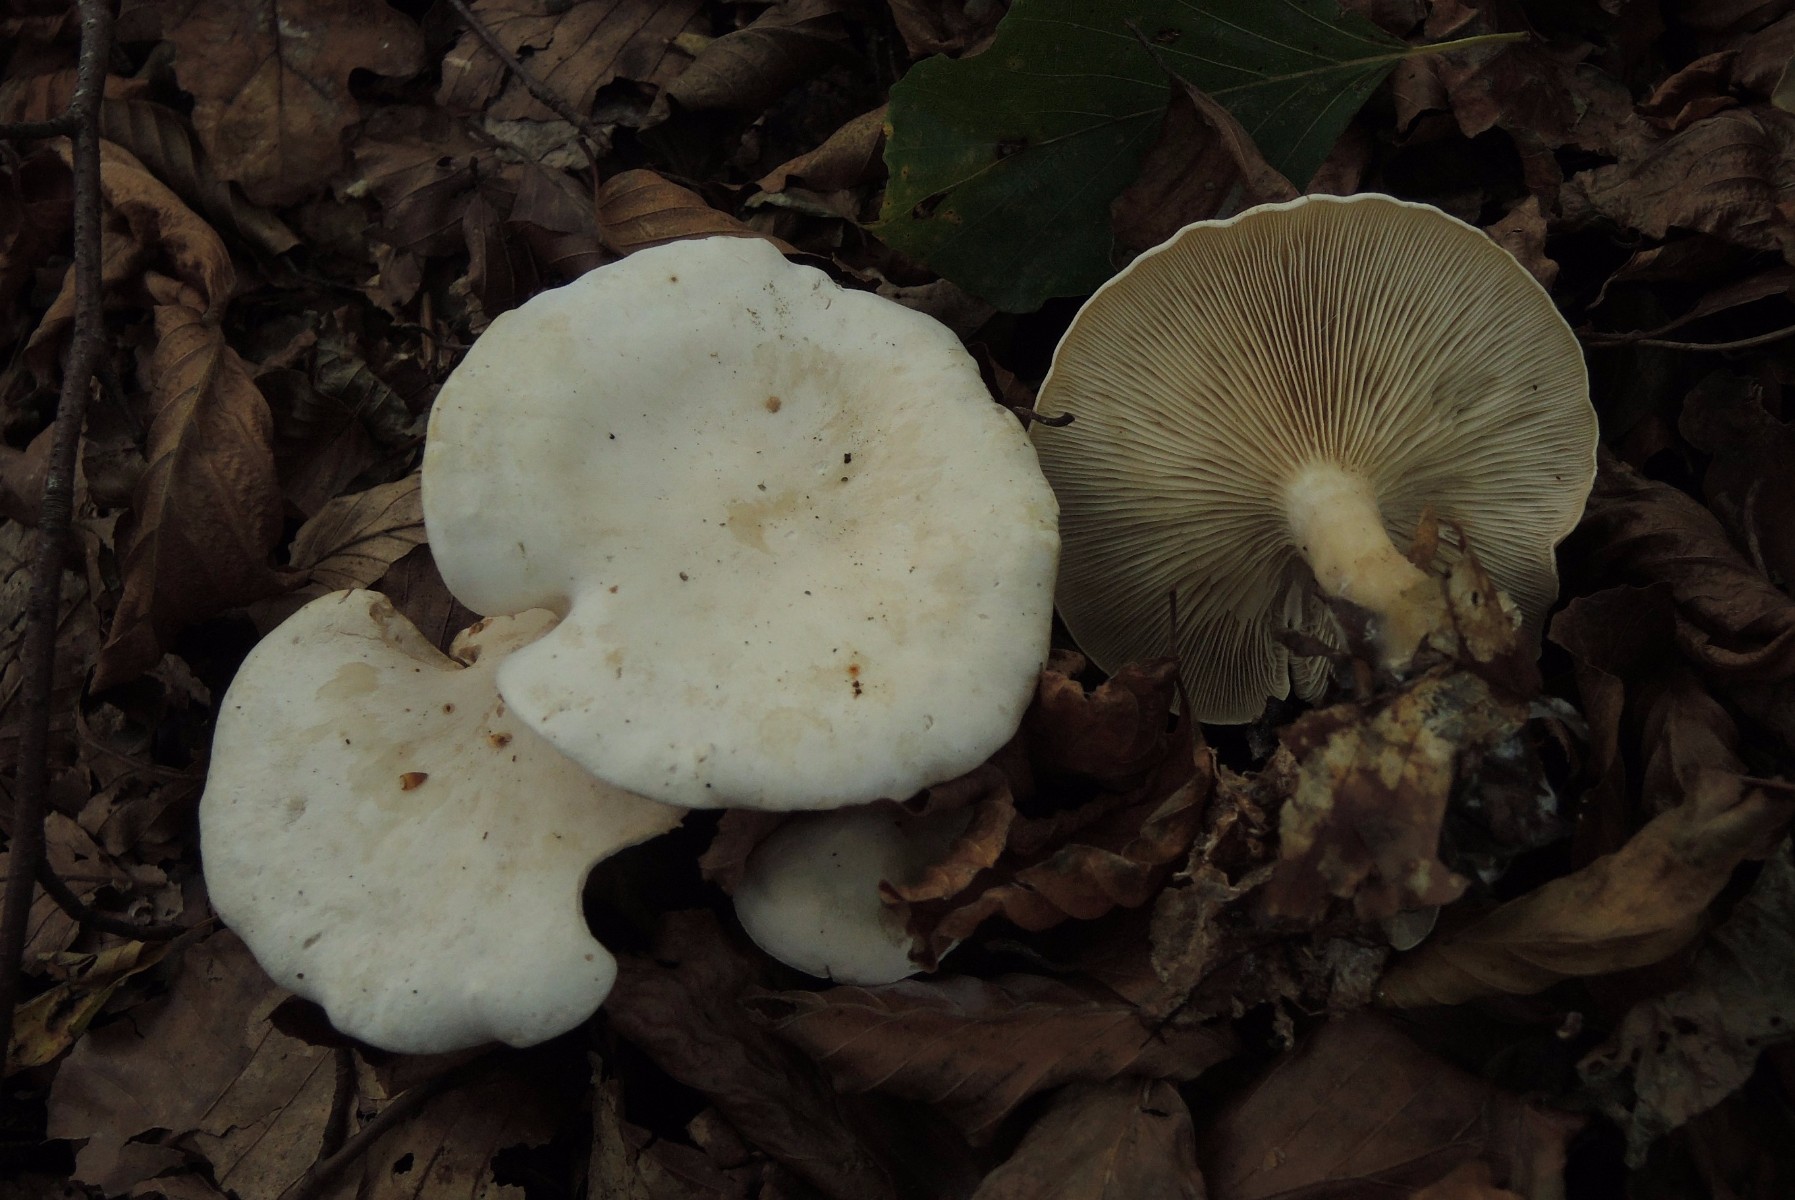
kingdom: Fungi
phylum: Basidiomycota
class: Agaricomycetes
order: Agaricales
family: Tricholomataceae
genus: Clitocybe
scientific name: Clitocybe phyllophila
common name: løv-tragthat
